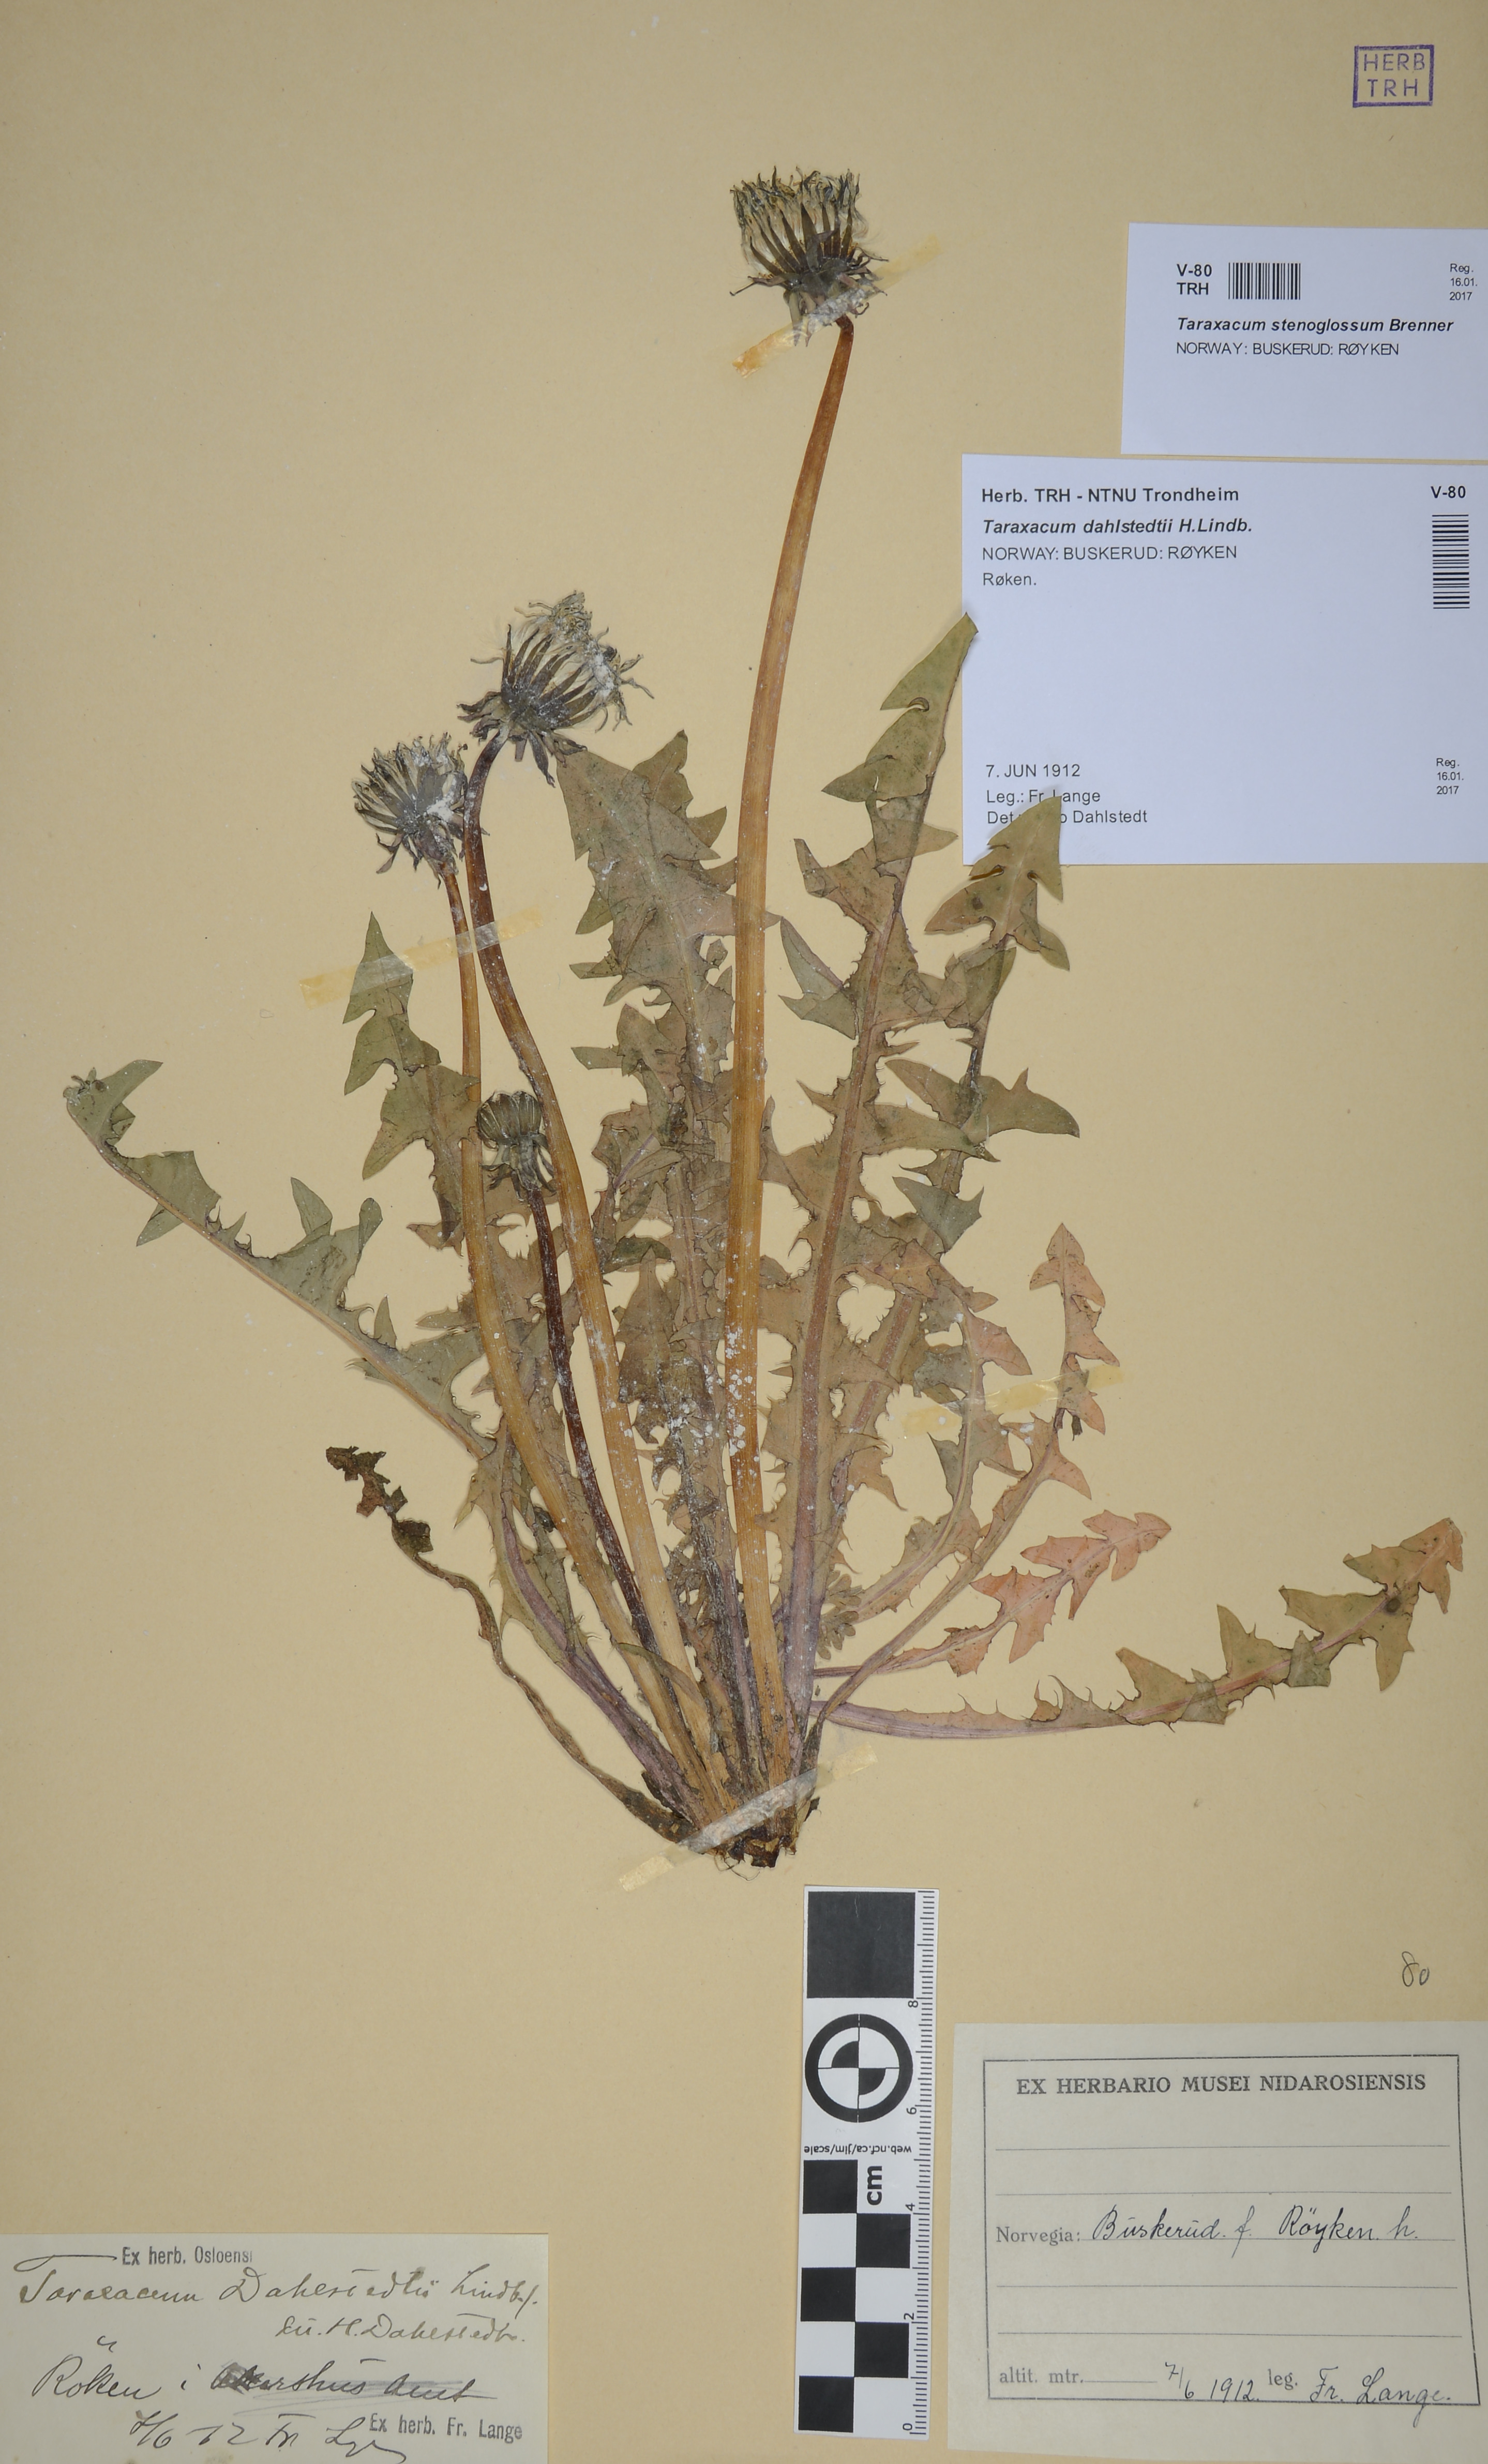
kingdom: Plantae
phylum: Tracheophyta
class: Magnoliopsida
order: Asterales
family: Asteraceae
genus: Taraxacum
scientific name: Taraxacum stenoglossum
